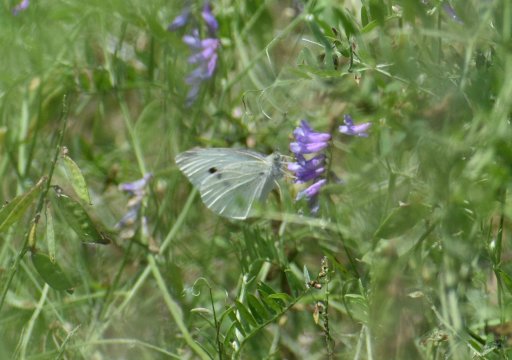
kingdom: Animalia
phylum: Arthropoda
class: Insecta
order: Lepidoptera
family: Pieridae
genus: Pieris
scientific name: Pieris rapae
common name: Cabbage White
